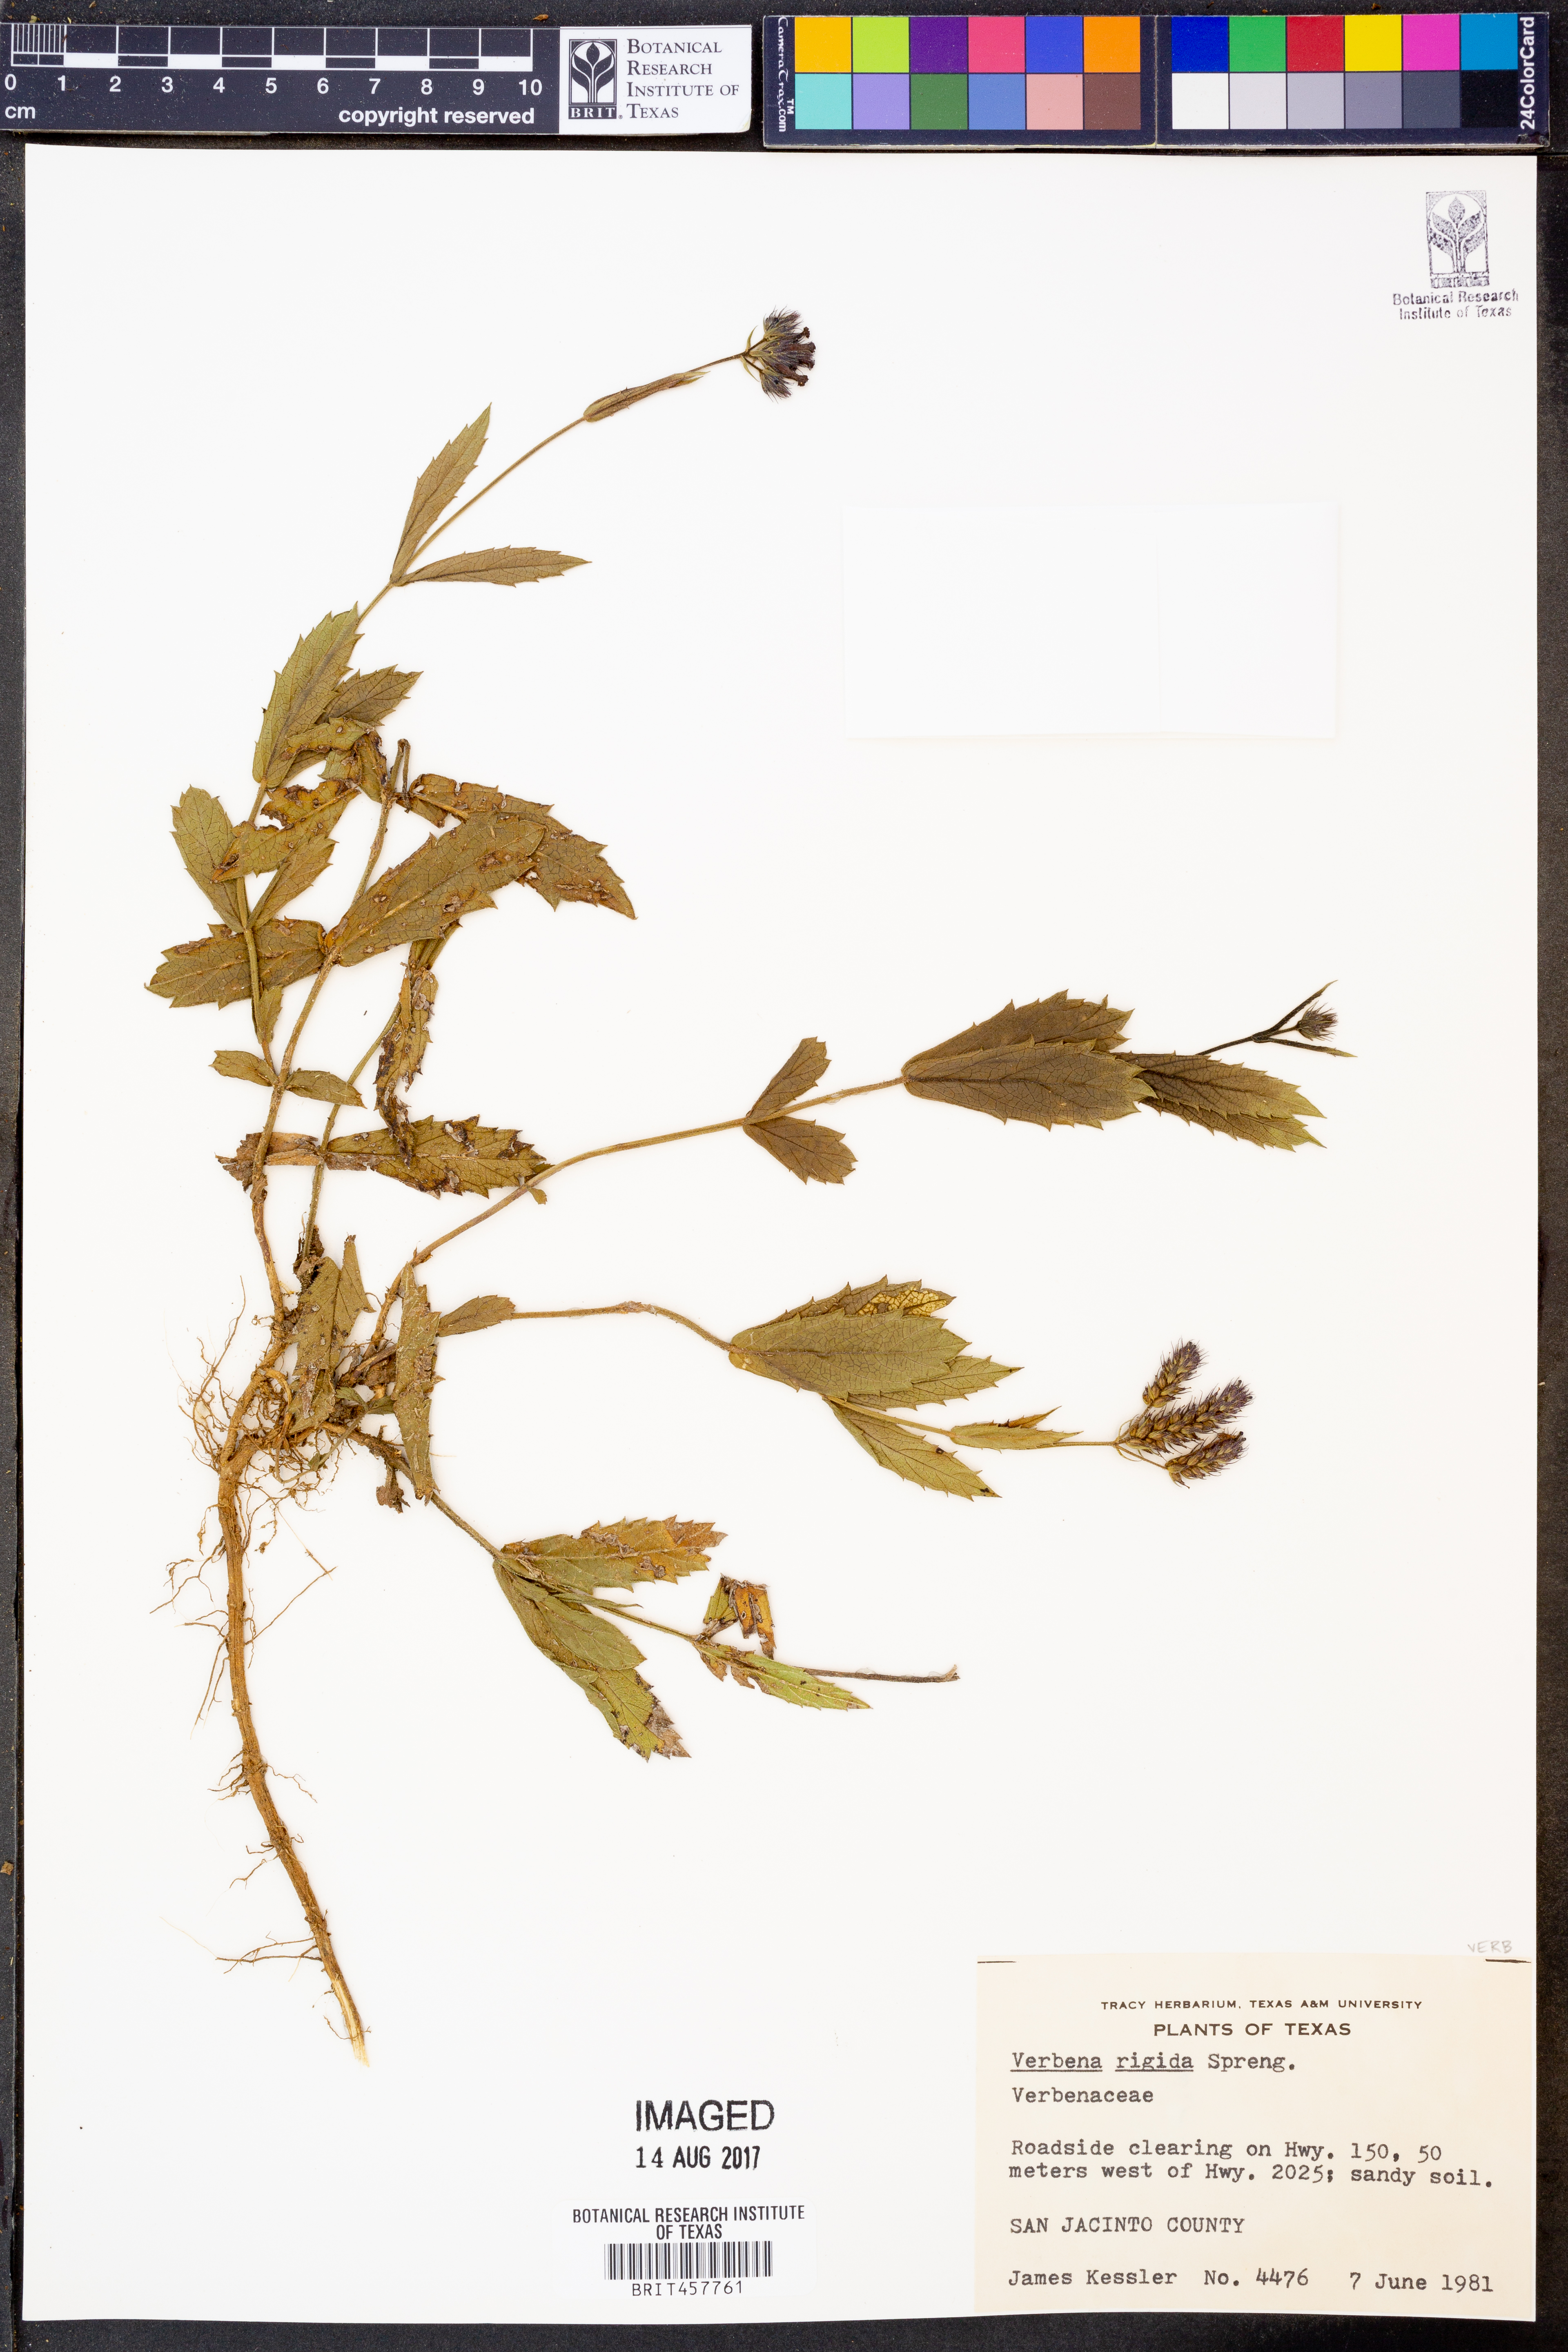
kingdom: Plantae
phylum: Tracheophyta
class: Magnoliopsida
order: Lamiales
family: Verbenaceae
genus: Verbena
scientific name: Verbena rigida
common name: Slender vervain
